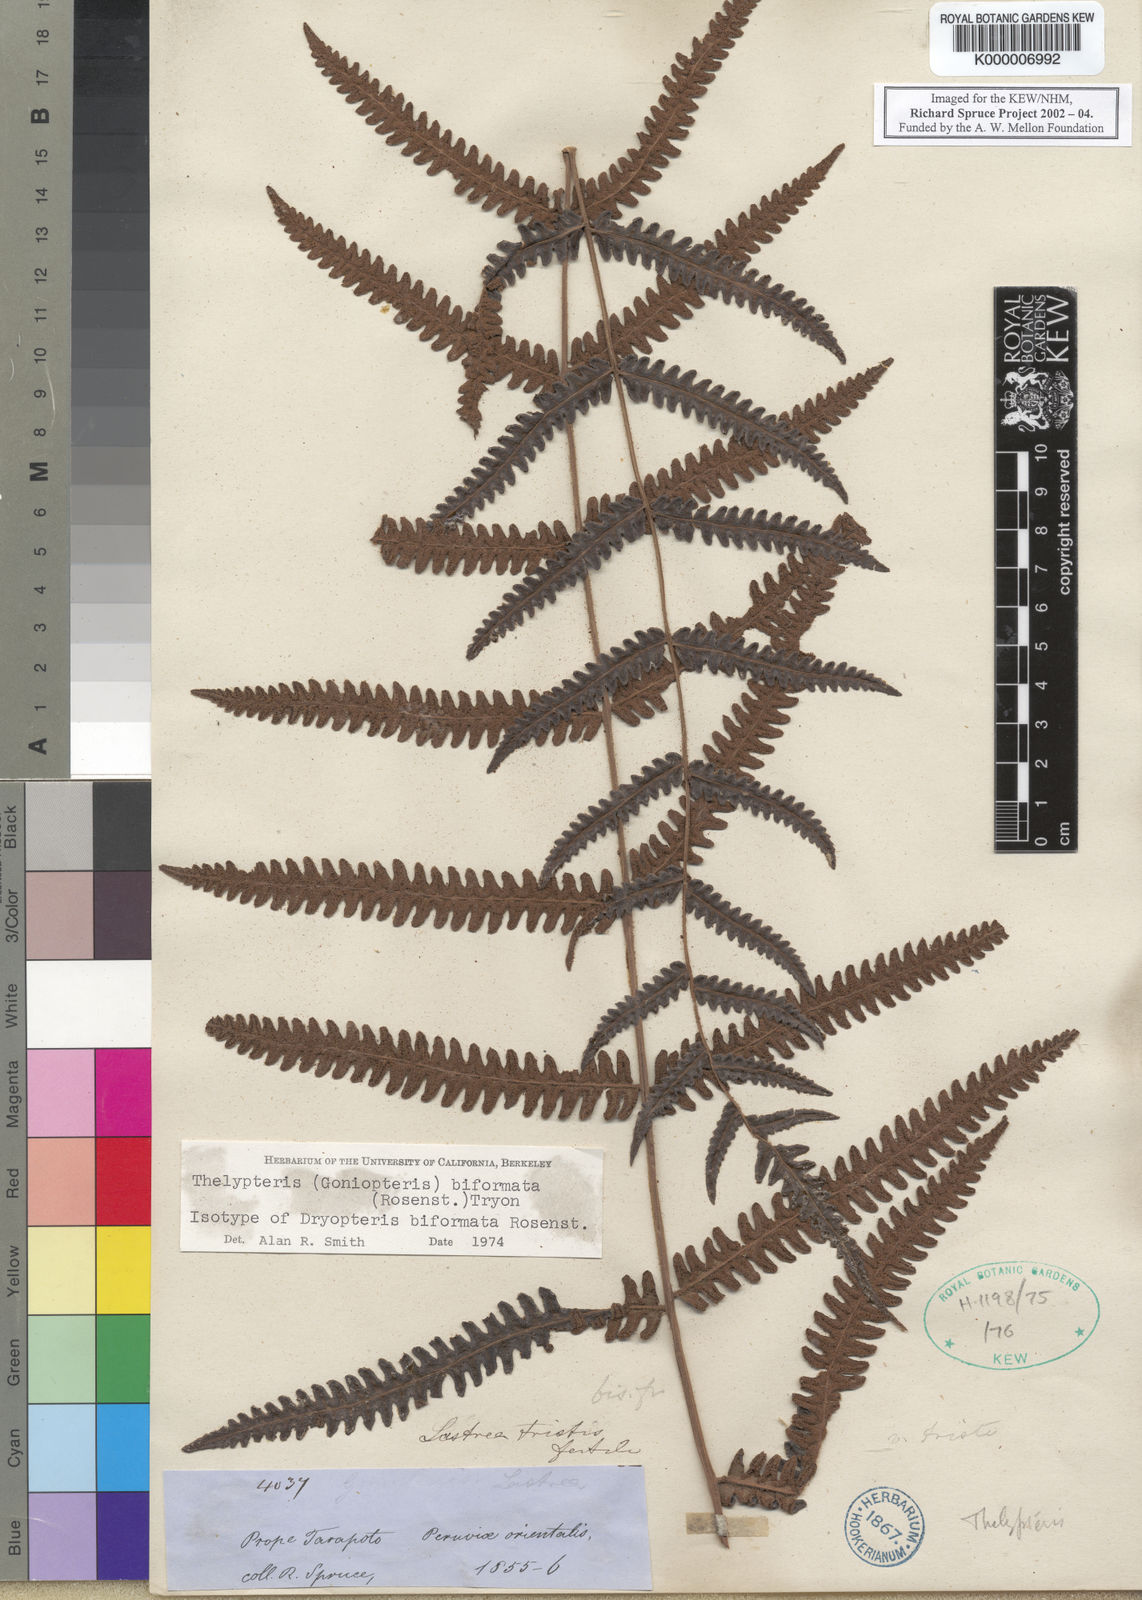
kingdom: Plantae
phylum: Tracheophyta
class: Polypodiopsida
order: Polypodiales
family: Thelypteridaceae
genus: Goniopteris
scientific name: Goniopteris biformata
